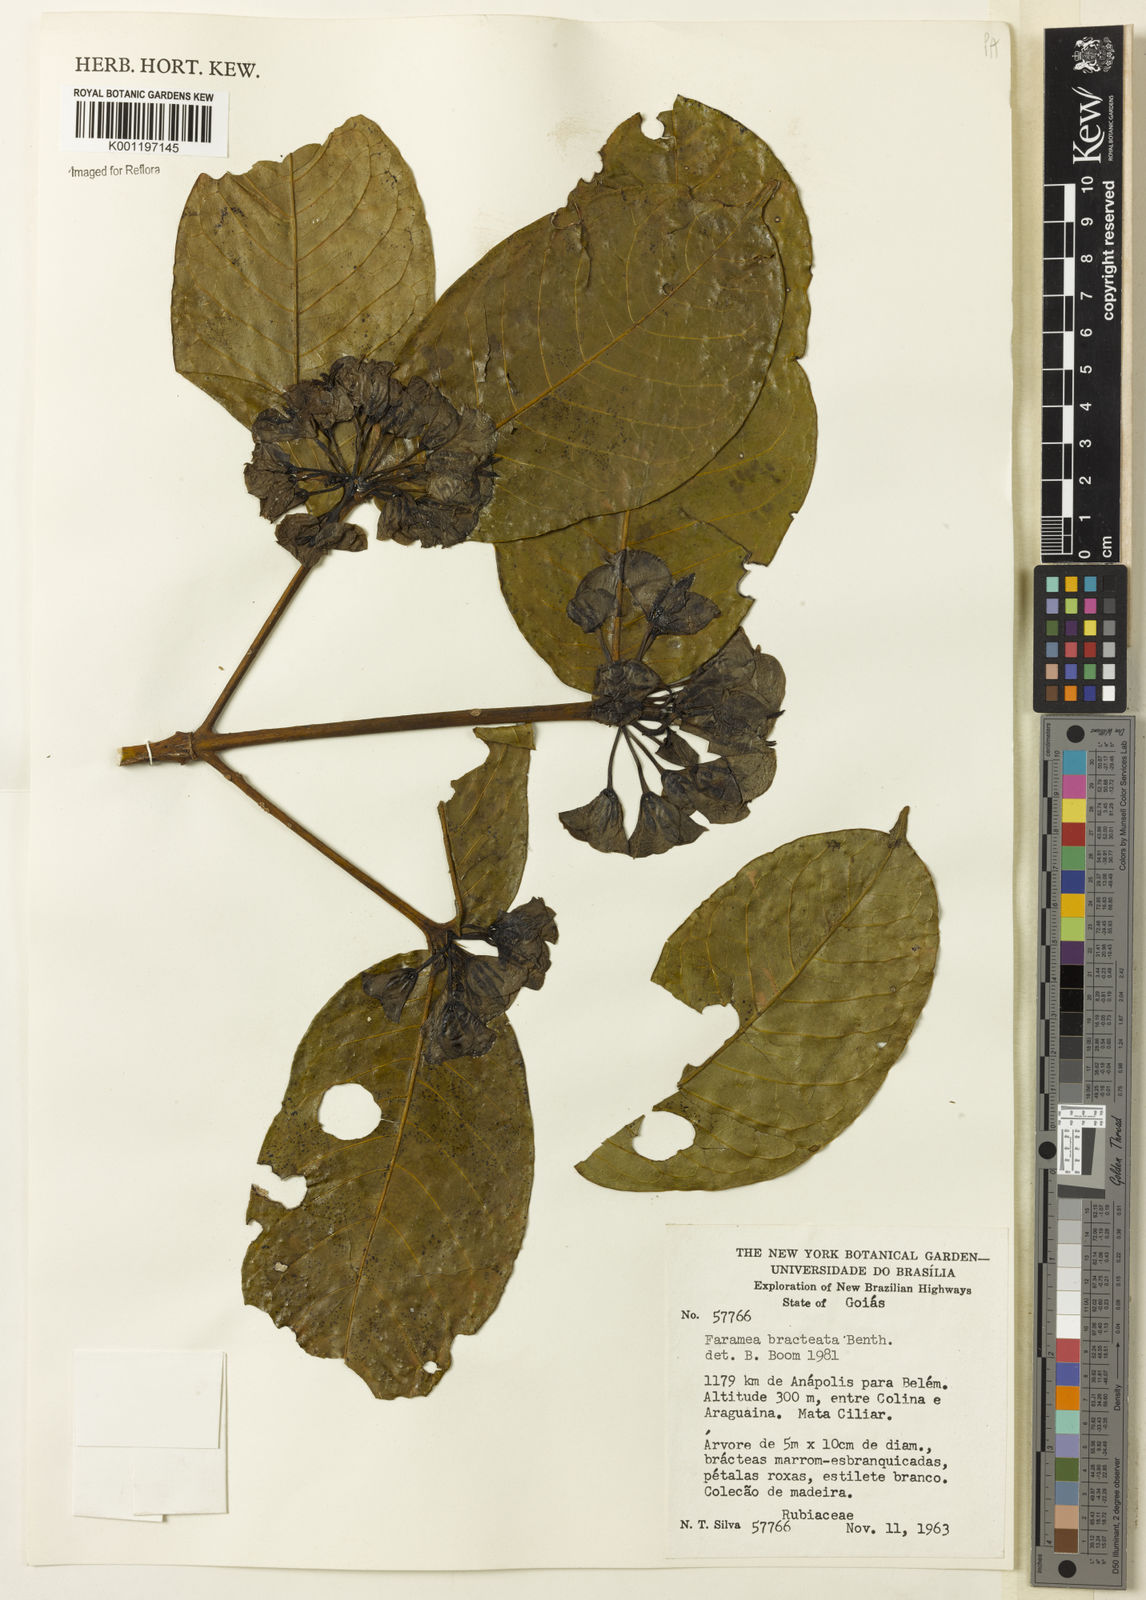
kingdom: Plantae
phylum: Tracheophyta
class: Magnoliopsida
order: Gentianales
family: Rubiaceae
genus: Faramea
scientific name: Faramea bracteata
